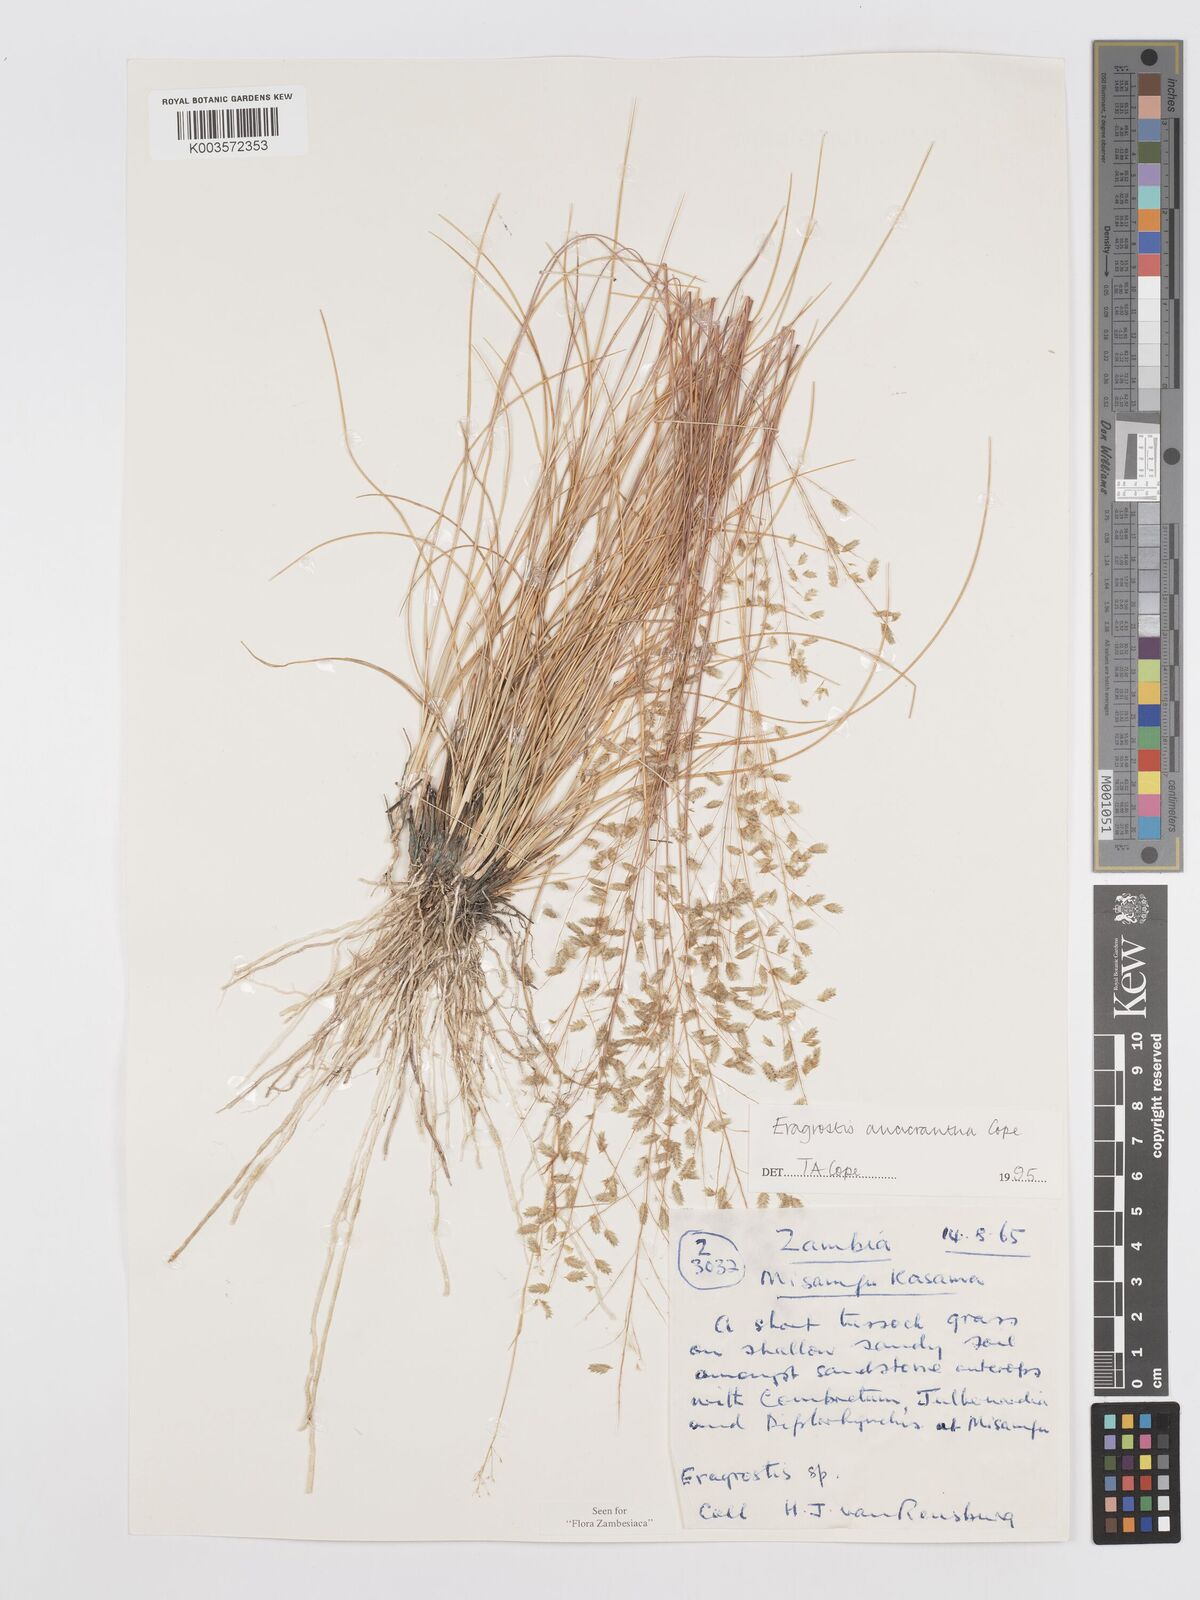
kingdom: Plantae
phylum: Tracheophyta
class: Liliopsida
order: Poales
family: Poaceae
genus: Eragrostis
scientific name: Eragrostis anacrantha
